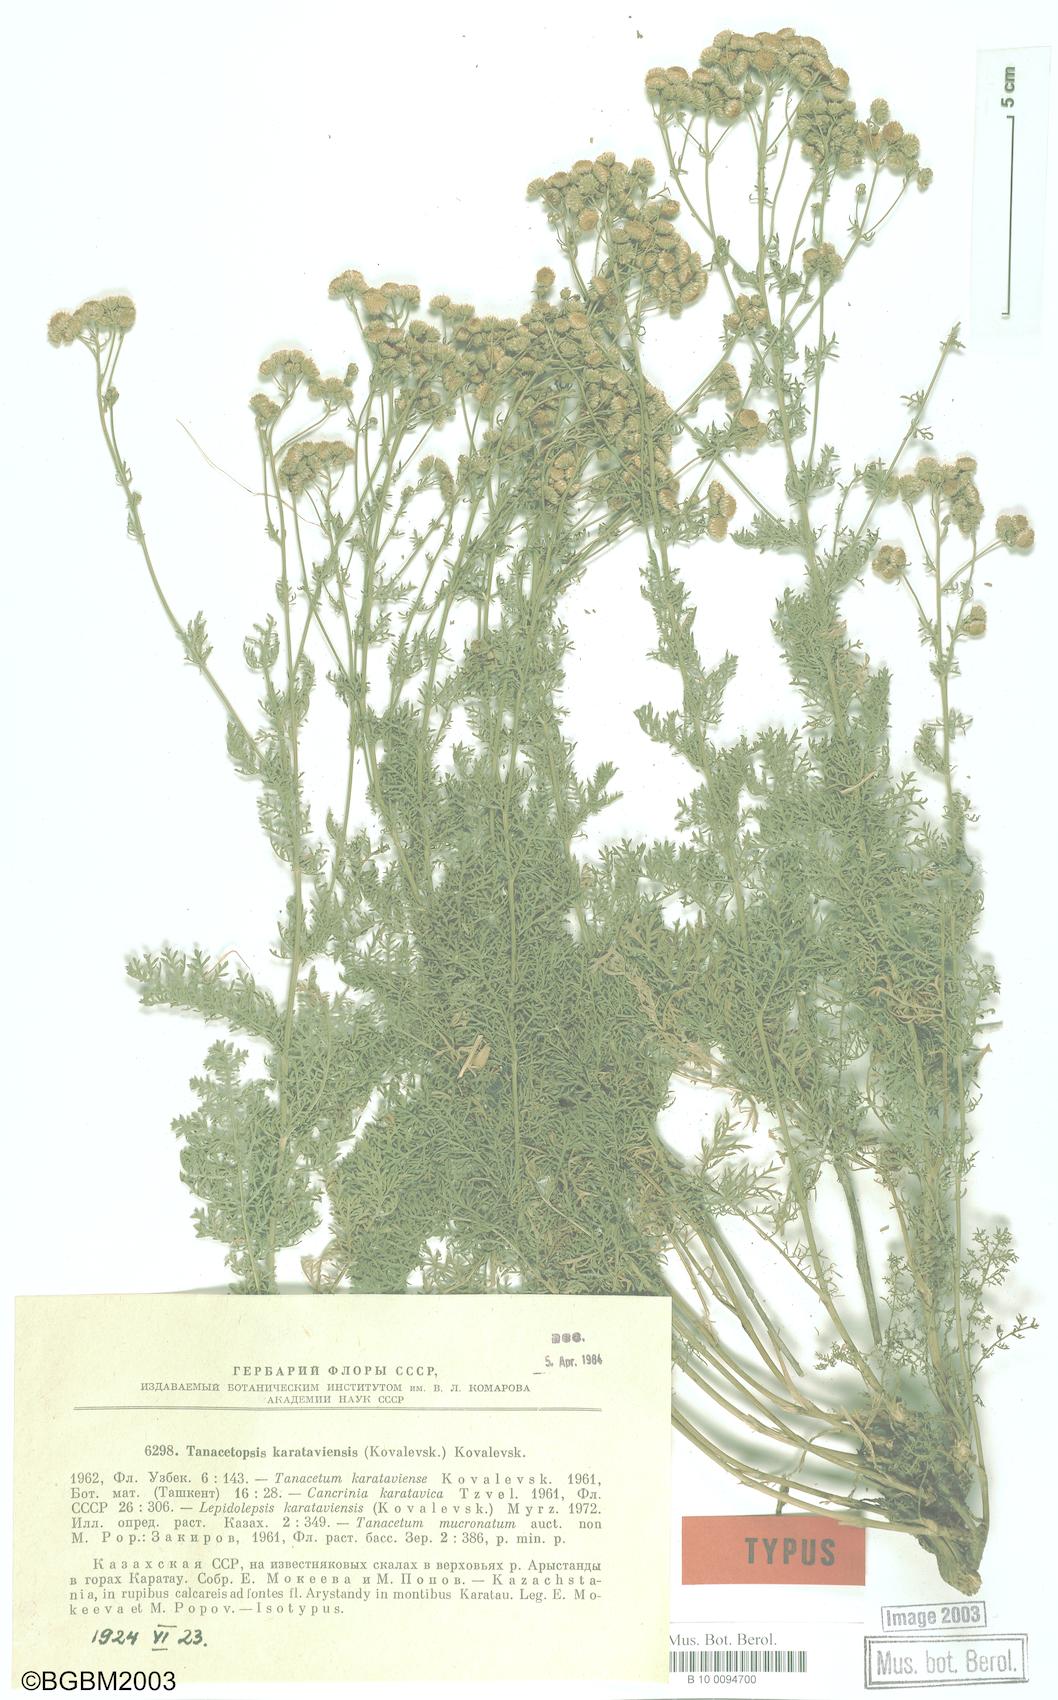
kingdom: Plantae
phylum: Tracheophyta
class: Magnoliopsida
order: Asterales
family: Asteraceae
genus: Tanacetopsis
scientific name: Tanacetopsis karataviensis
